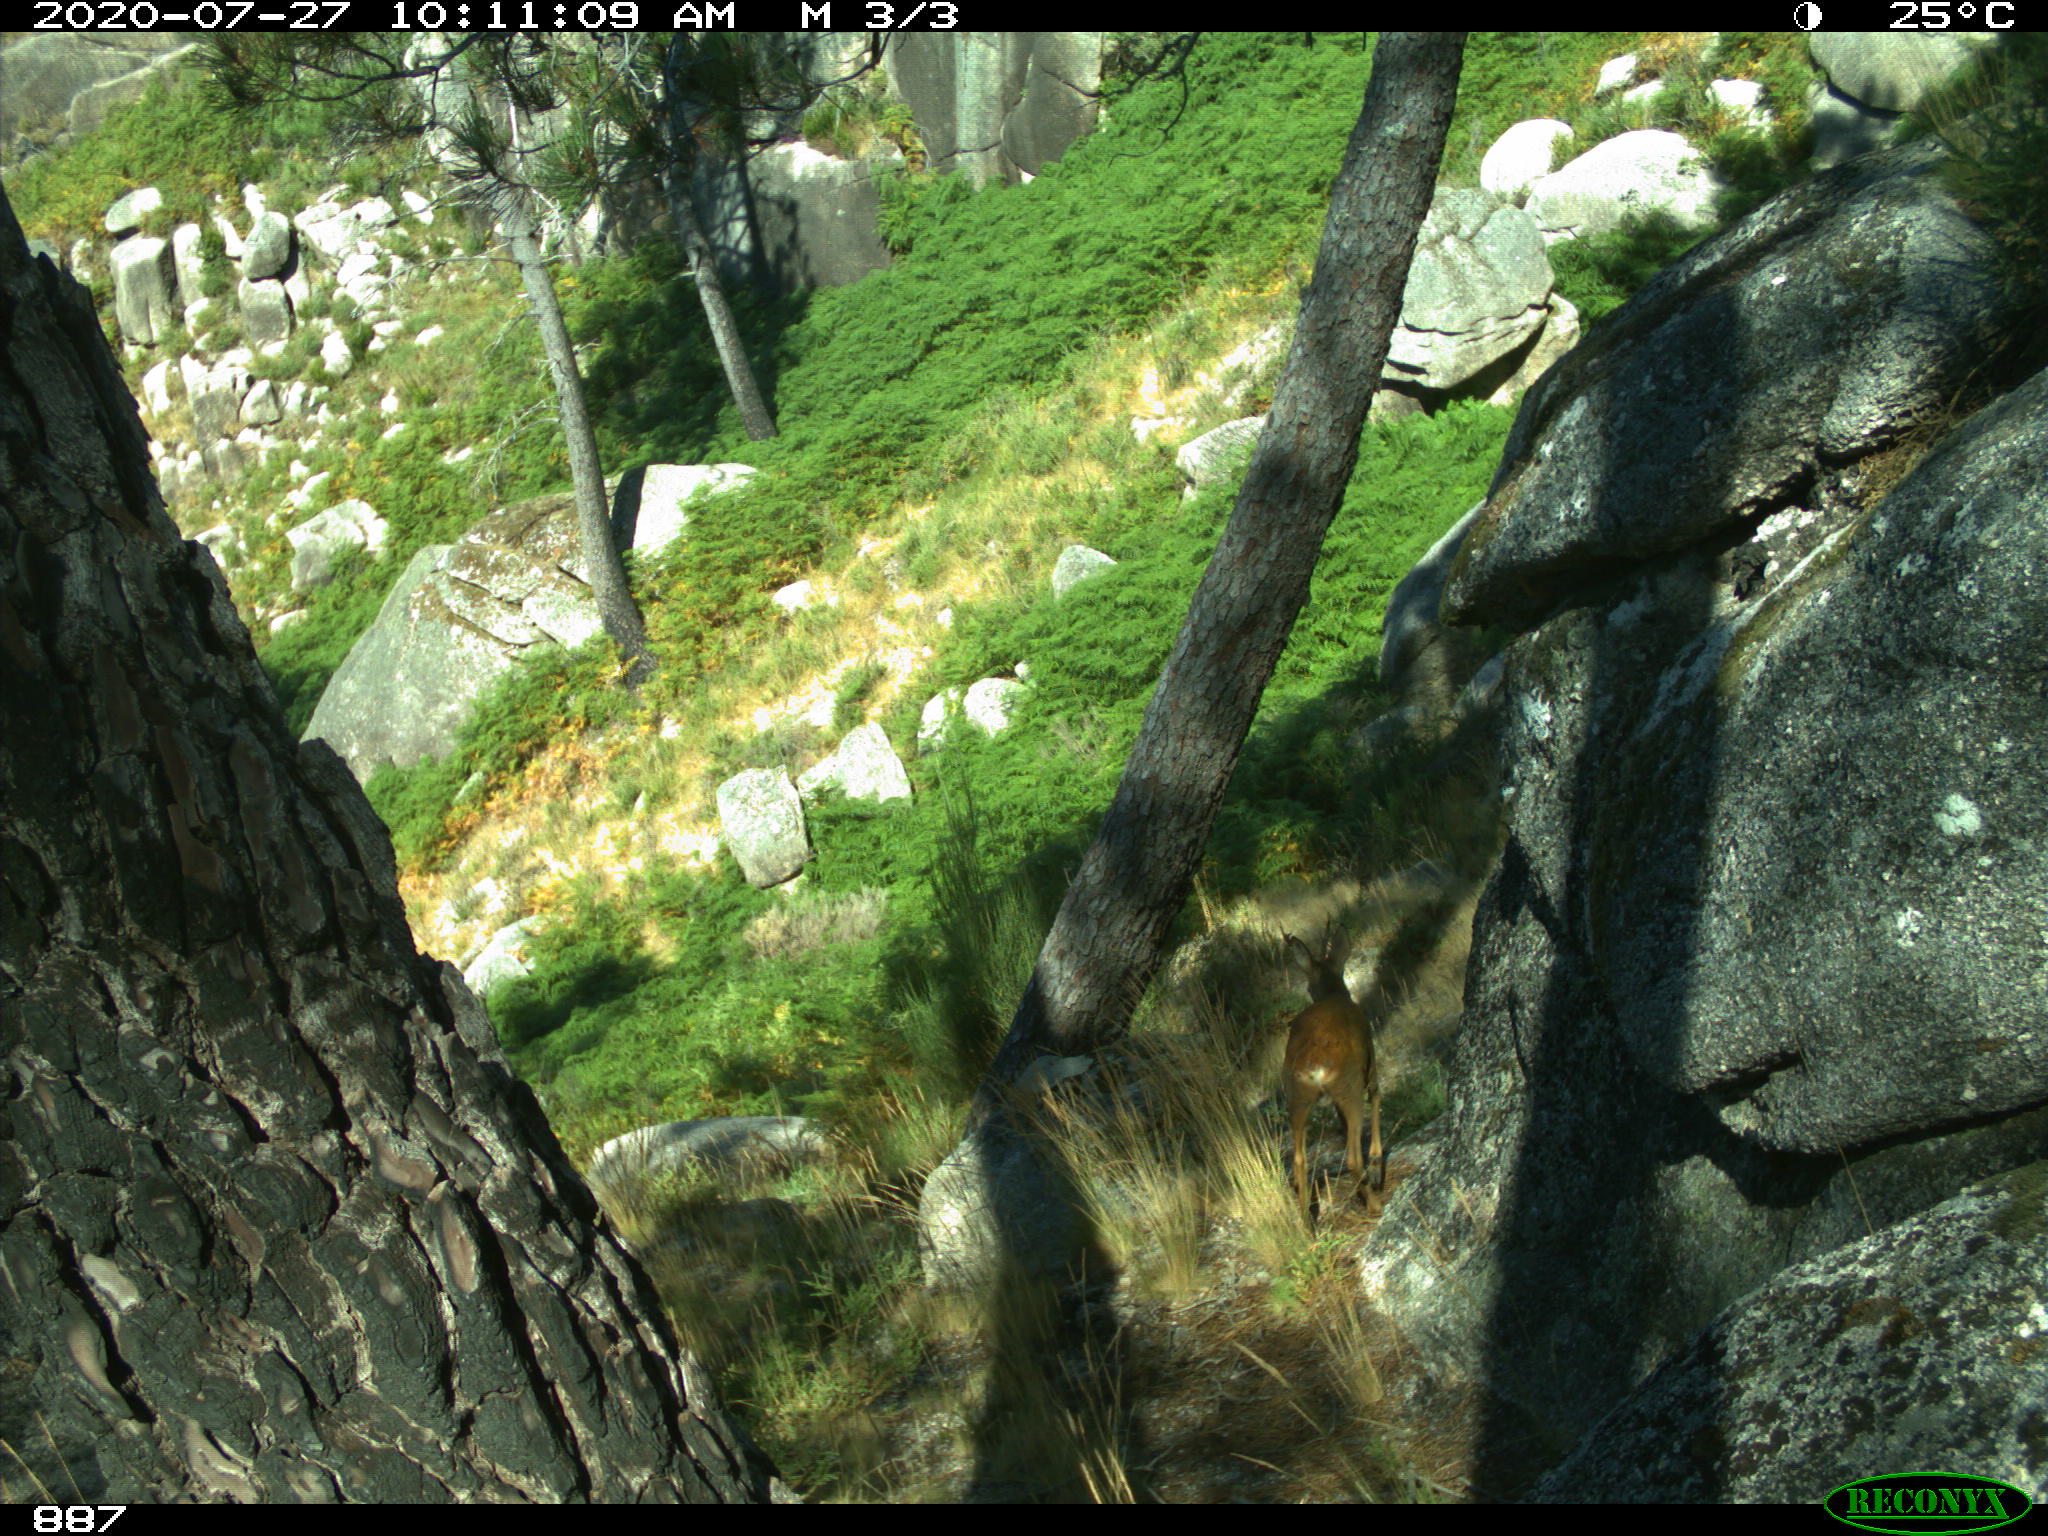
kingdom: Animalia
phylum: Chordata
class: Mammalia
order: Artiodactyla
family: Cervidae
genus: Capreolus
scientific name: Capreolus capreolus
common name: Western roe deer
